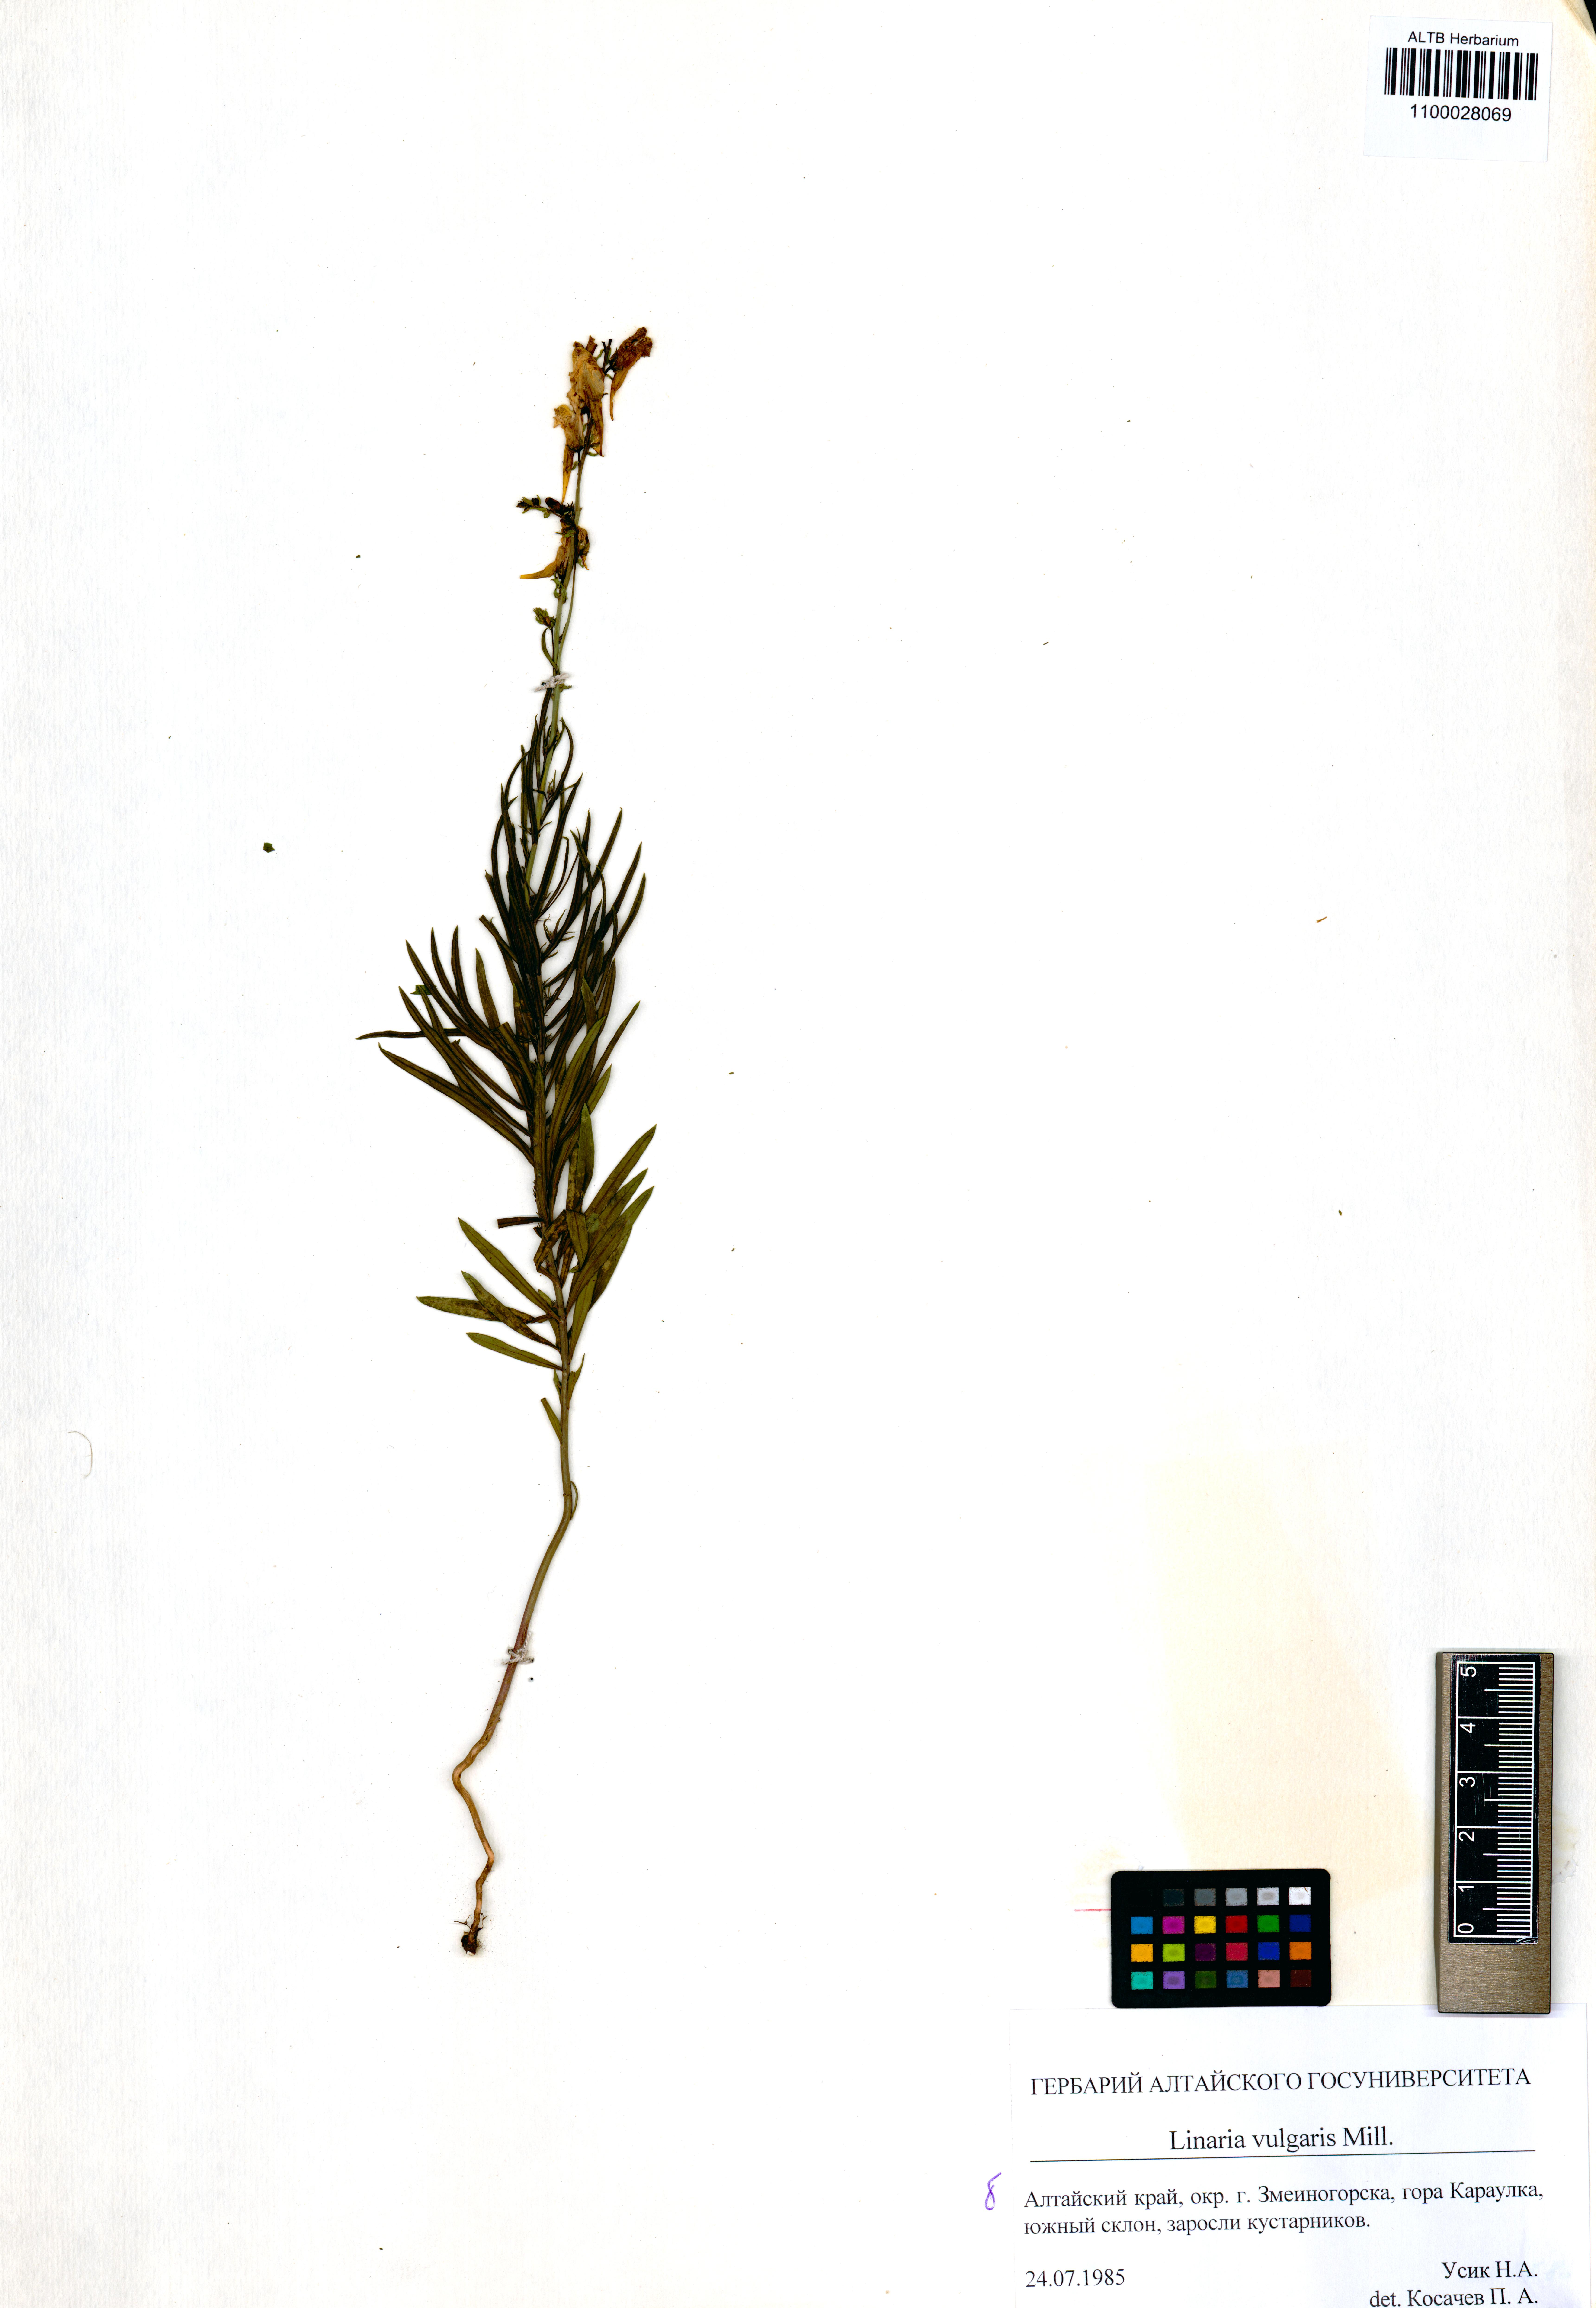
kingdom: Plantae
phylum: Tracheophyta
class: Magnoliopsida
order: Lamiales
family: Plantaginaceae
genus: Linaria
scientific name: Linaria vulgaris
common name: Butter and eggs
